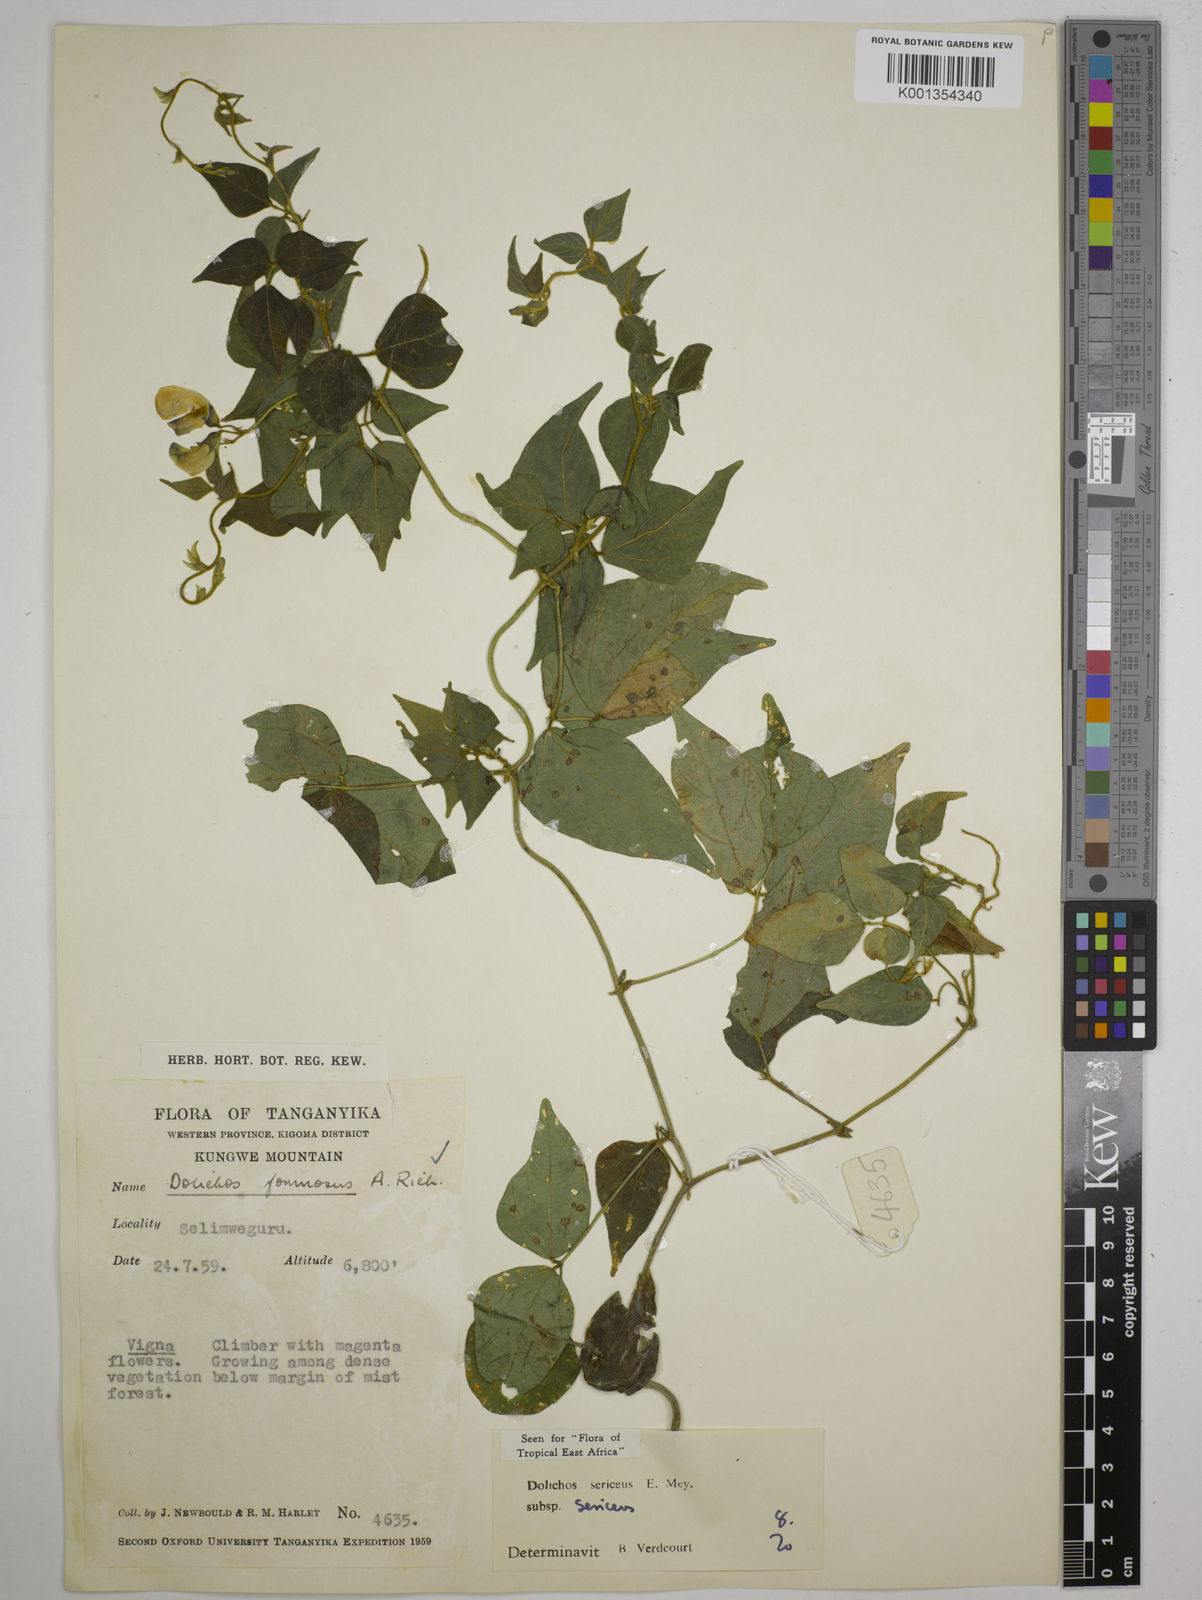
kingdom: Plantae
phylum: Tracheophyta
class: Magnoliopsida
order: Fabales
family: Fabaceae
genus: Dolichos
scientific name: Dolichos
